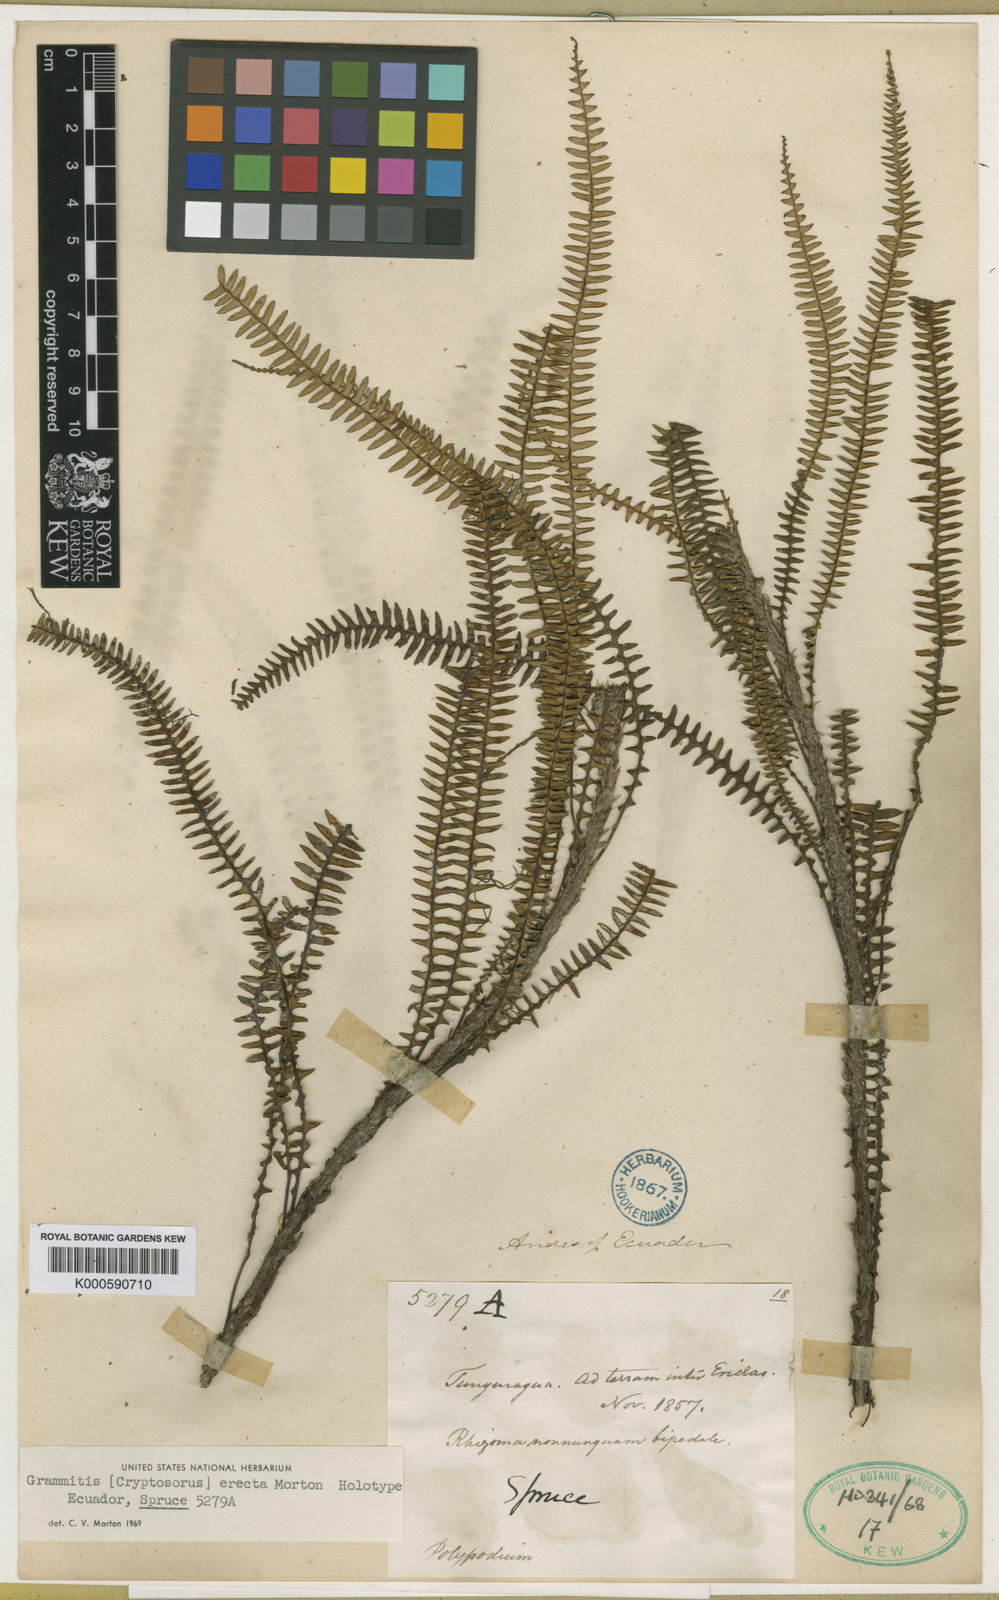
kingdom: Plantae
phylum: Tracheophyta
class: Polypodiopsida
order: Polypodiales
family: Polypodiaceae
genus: Melpomene
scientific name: Melpomene erecta
